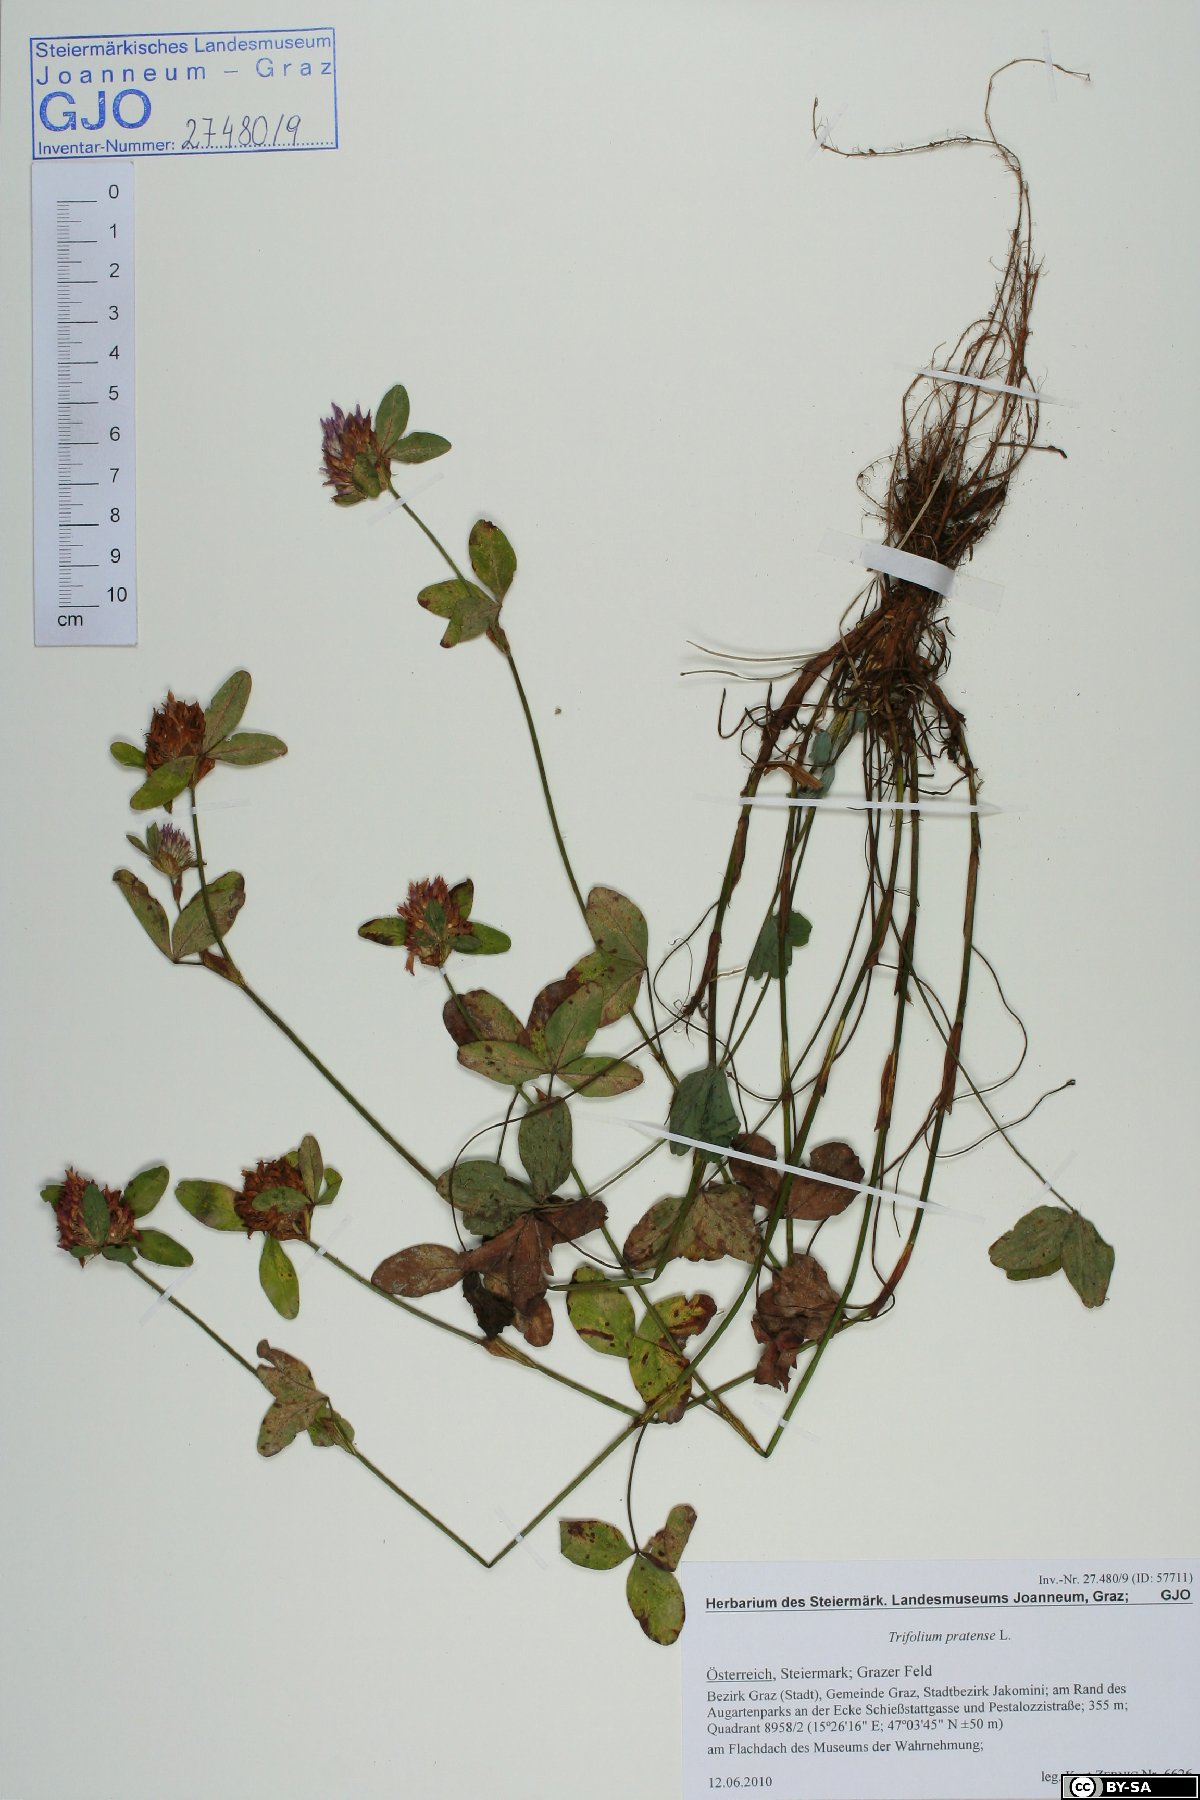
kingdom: Plantae
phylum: Tracheophyta
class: Magnoliopsida
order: Fabales
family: Fabaceae
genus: Trifolium
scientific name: Trifolium pratense
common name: Red clover
